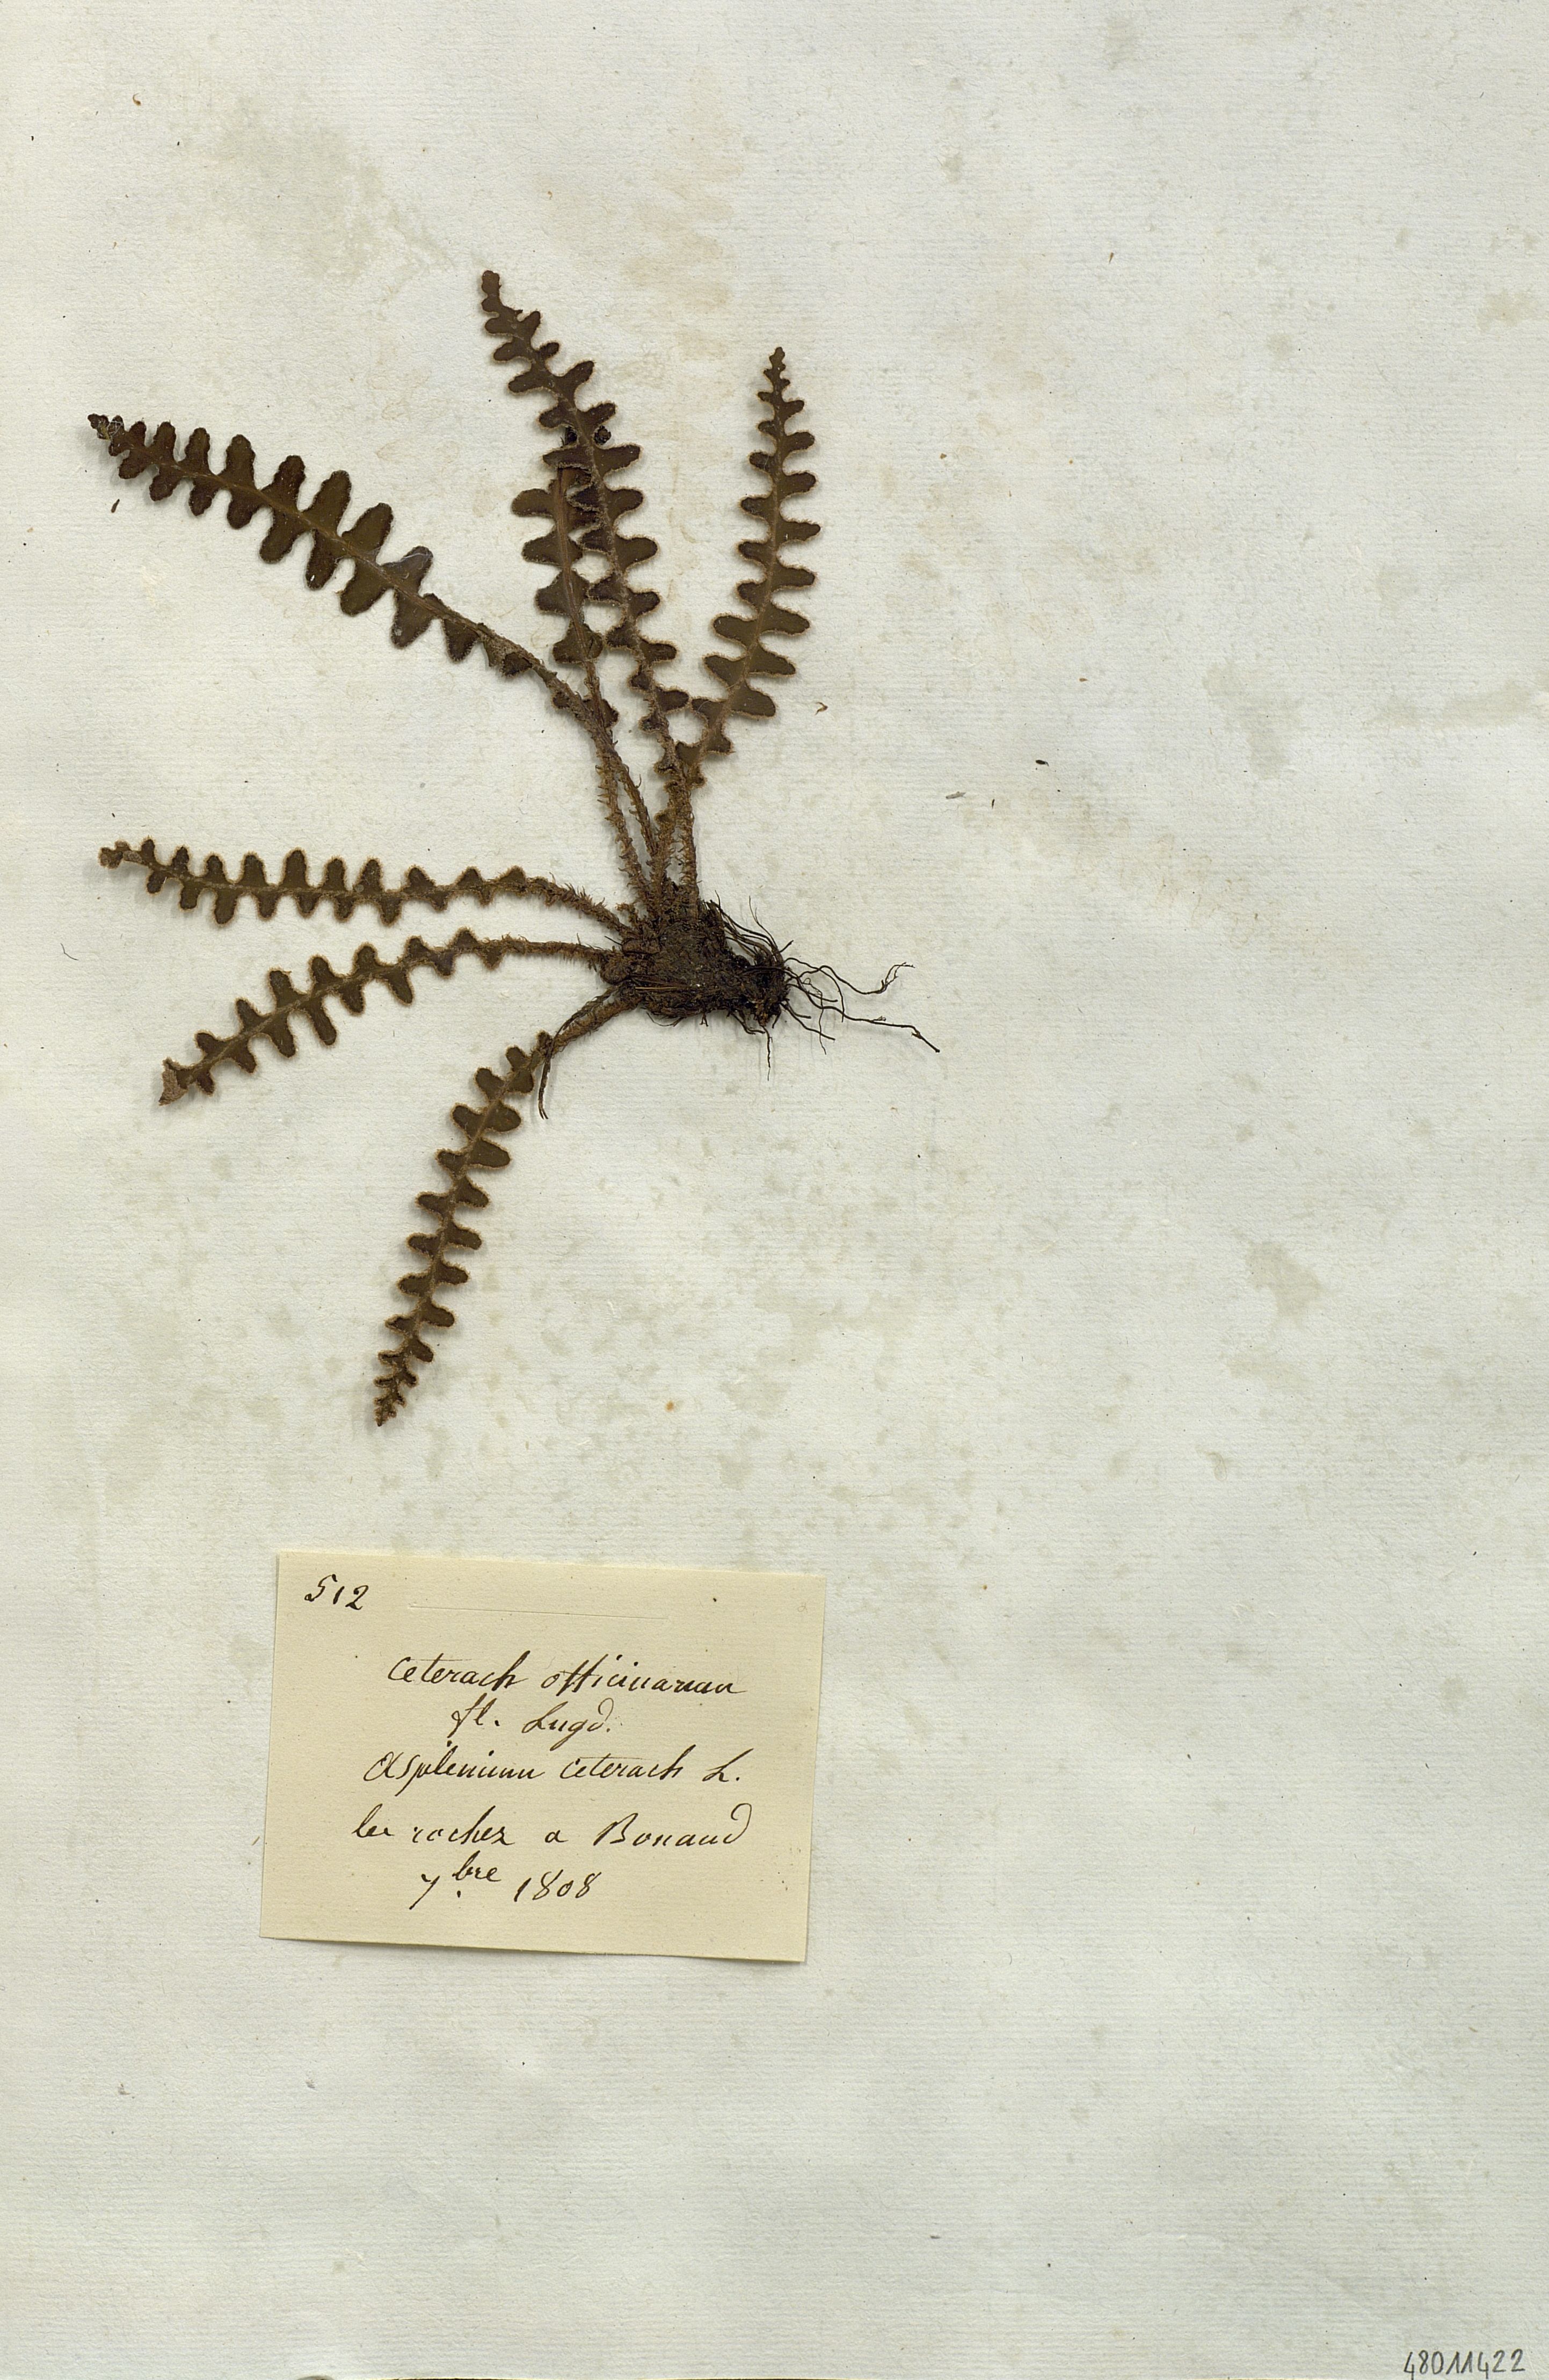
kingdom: Plantae
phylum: Tracheophyta
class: Polypodiopsida
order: Polypodiales
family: Aspleniaceae
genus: Asplenium
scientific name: Asplenium ceterach
